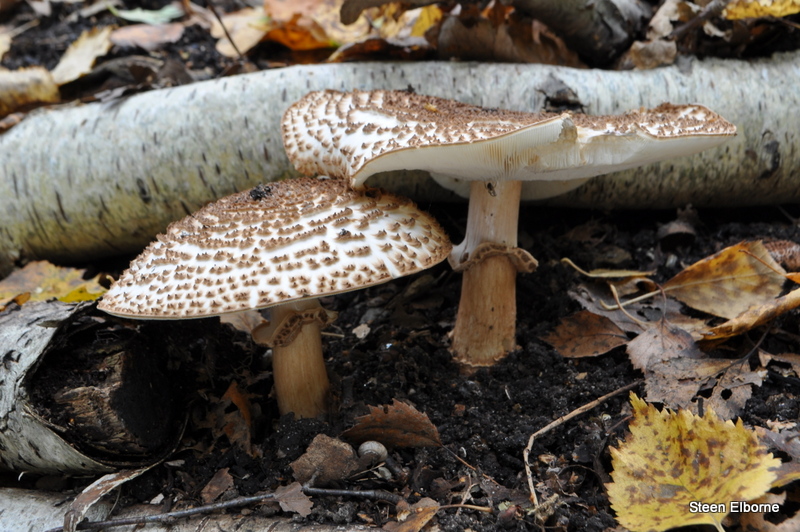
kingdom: Fungi
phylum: Basidiomycota
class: Agaricomycetes
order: Agaricales
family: Agaricaceae
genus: Echinoderma
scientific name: Echinoderma asperum
